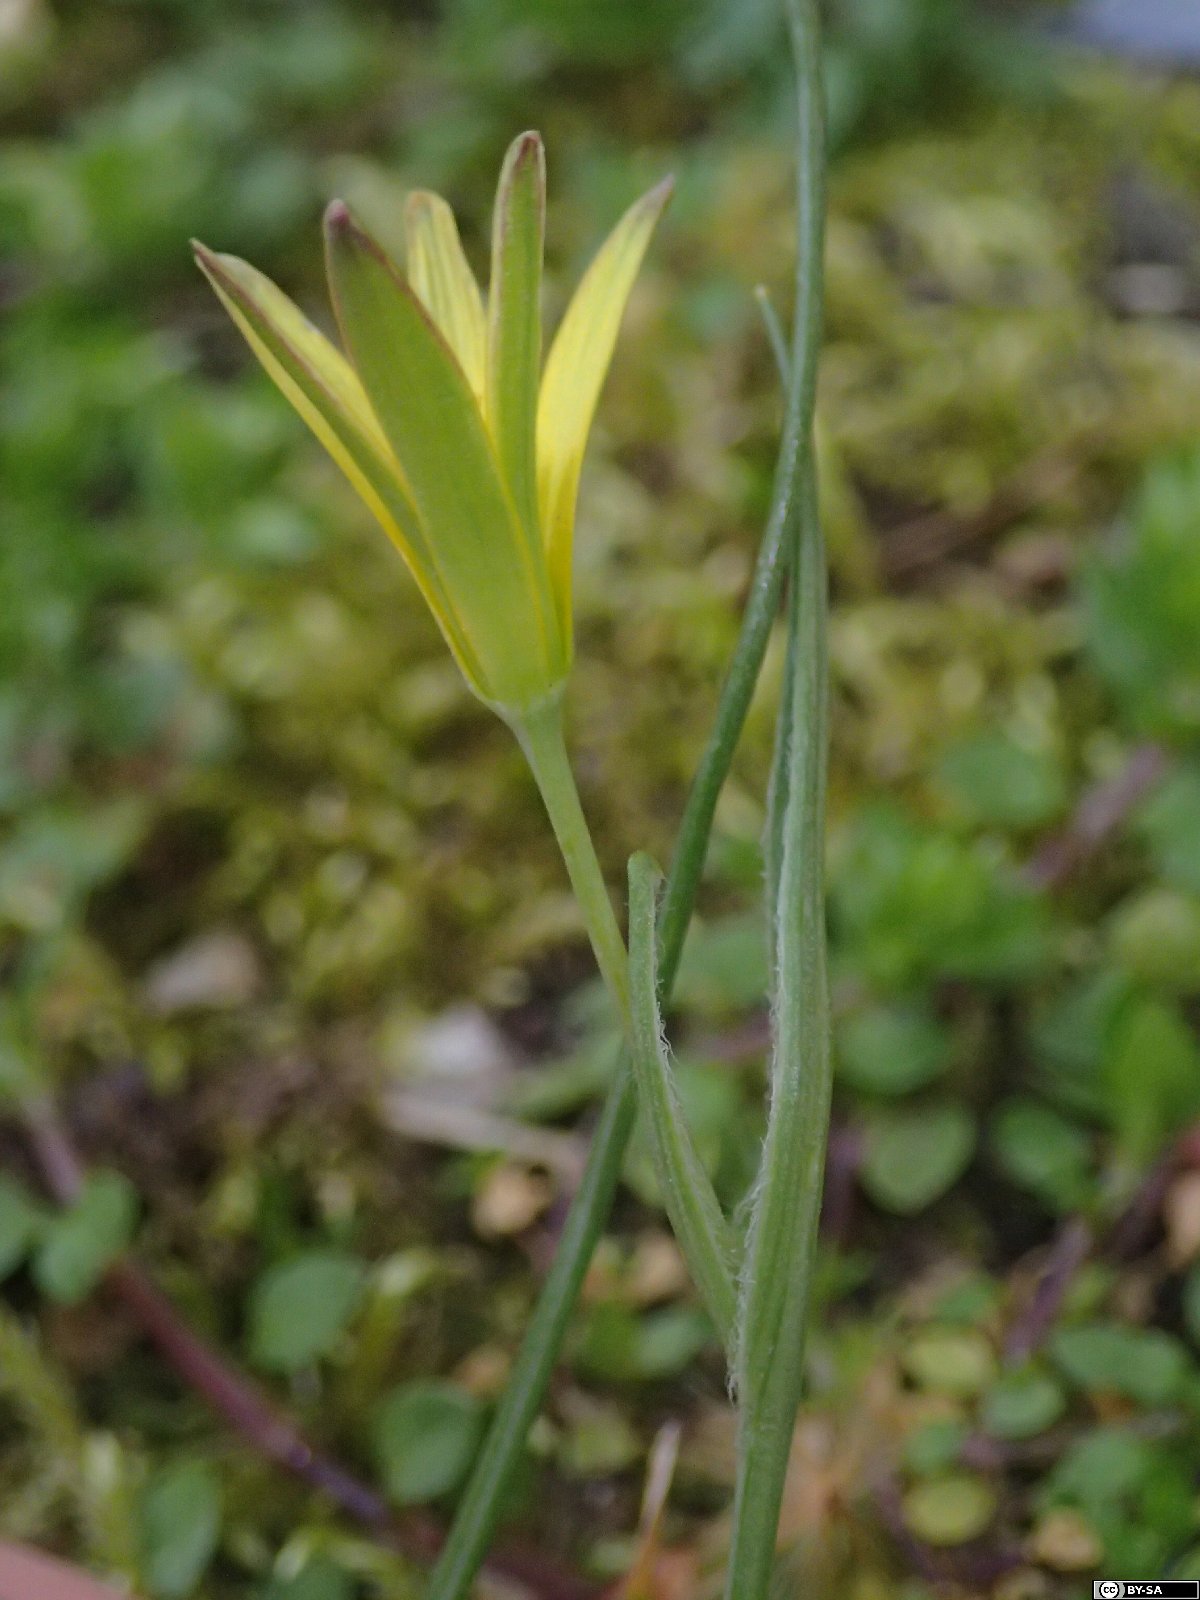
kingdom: Plantae
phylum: Tracheophyta
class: Liliopsida
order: Liliales
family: Liliaceae
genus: Gagea
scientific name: Gagea pratensis
